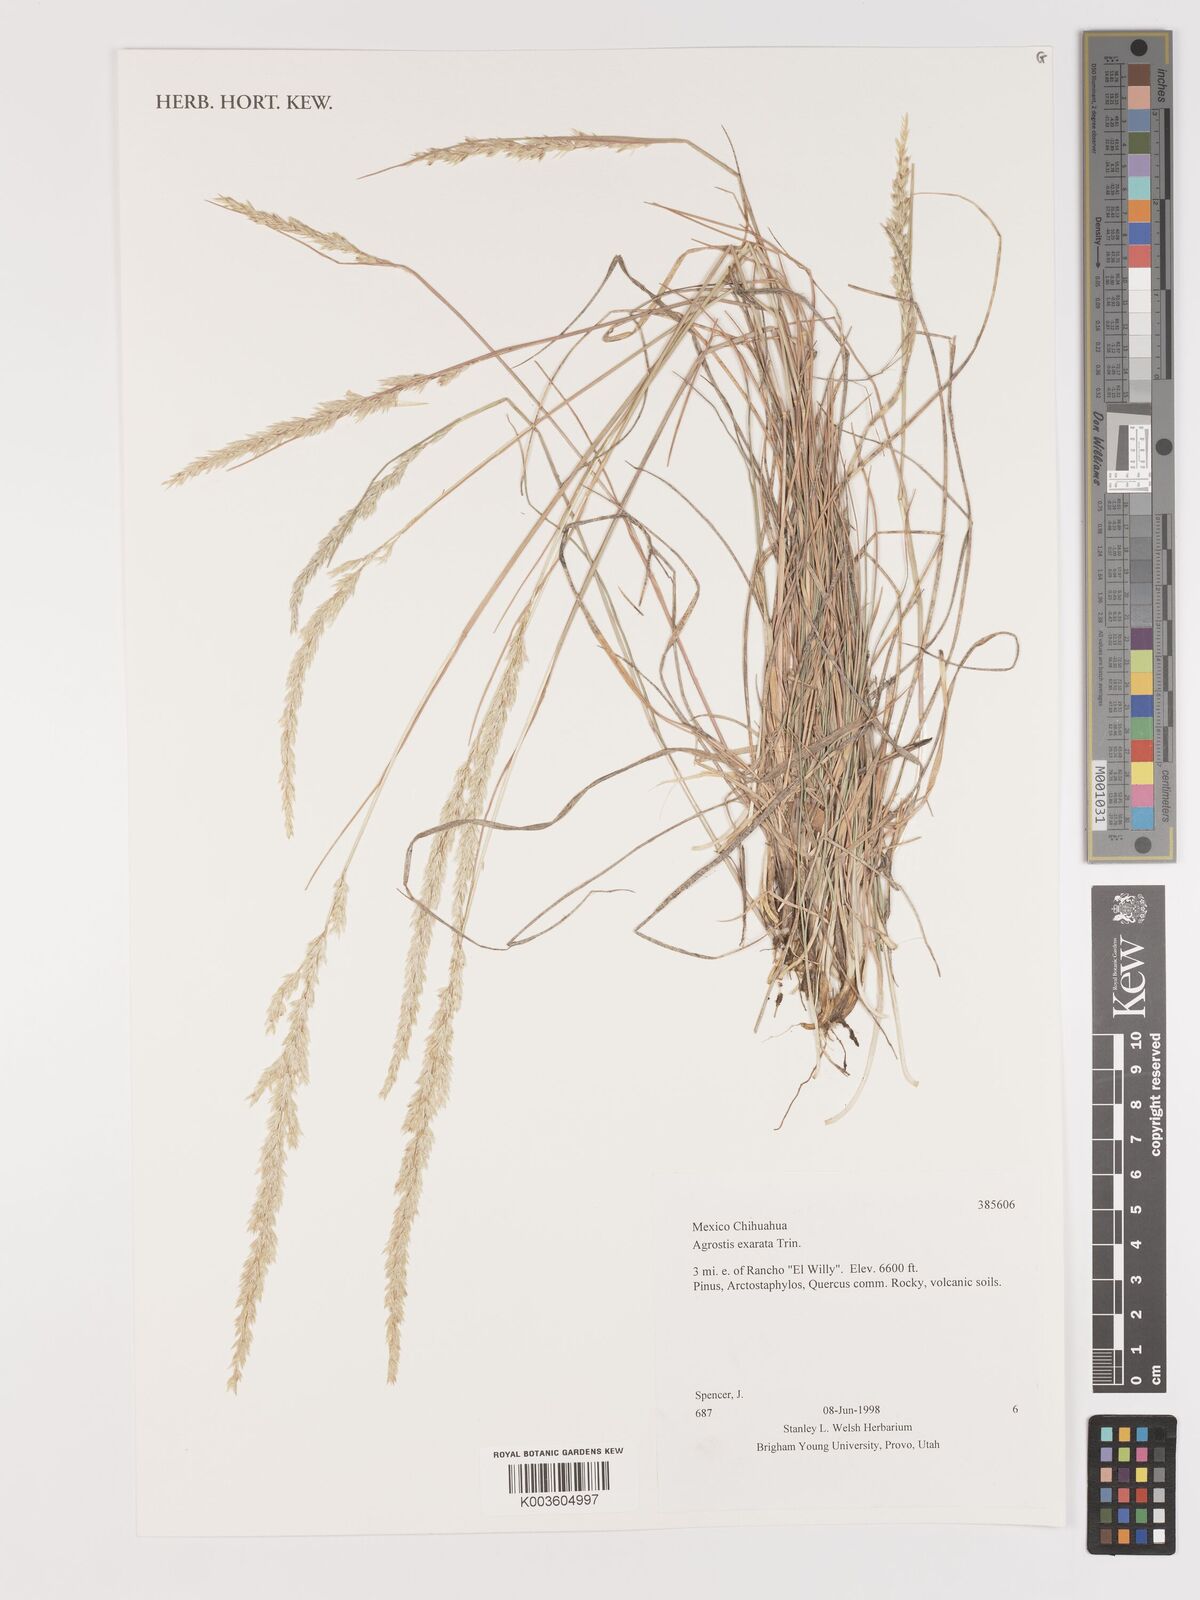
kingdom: Plantae
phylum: Tracheophyta
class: Liliopsida
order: Poales
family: Poaceae
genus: Agrostis
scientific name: Agrostis exarata
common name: Spike bent
